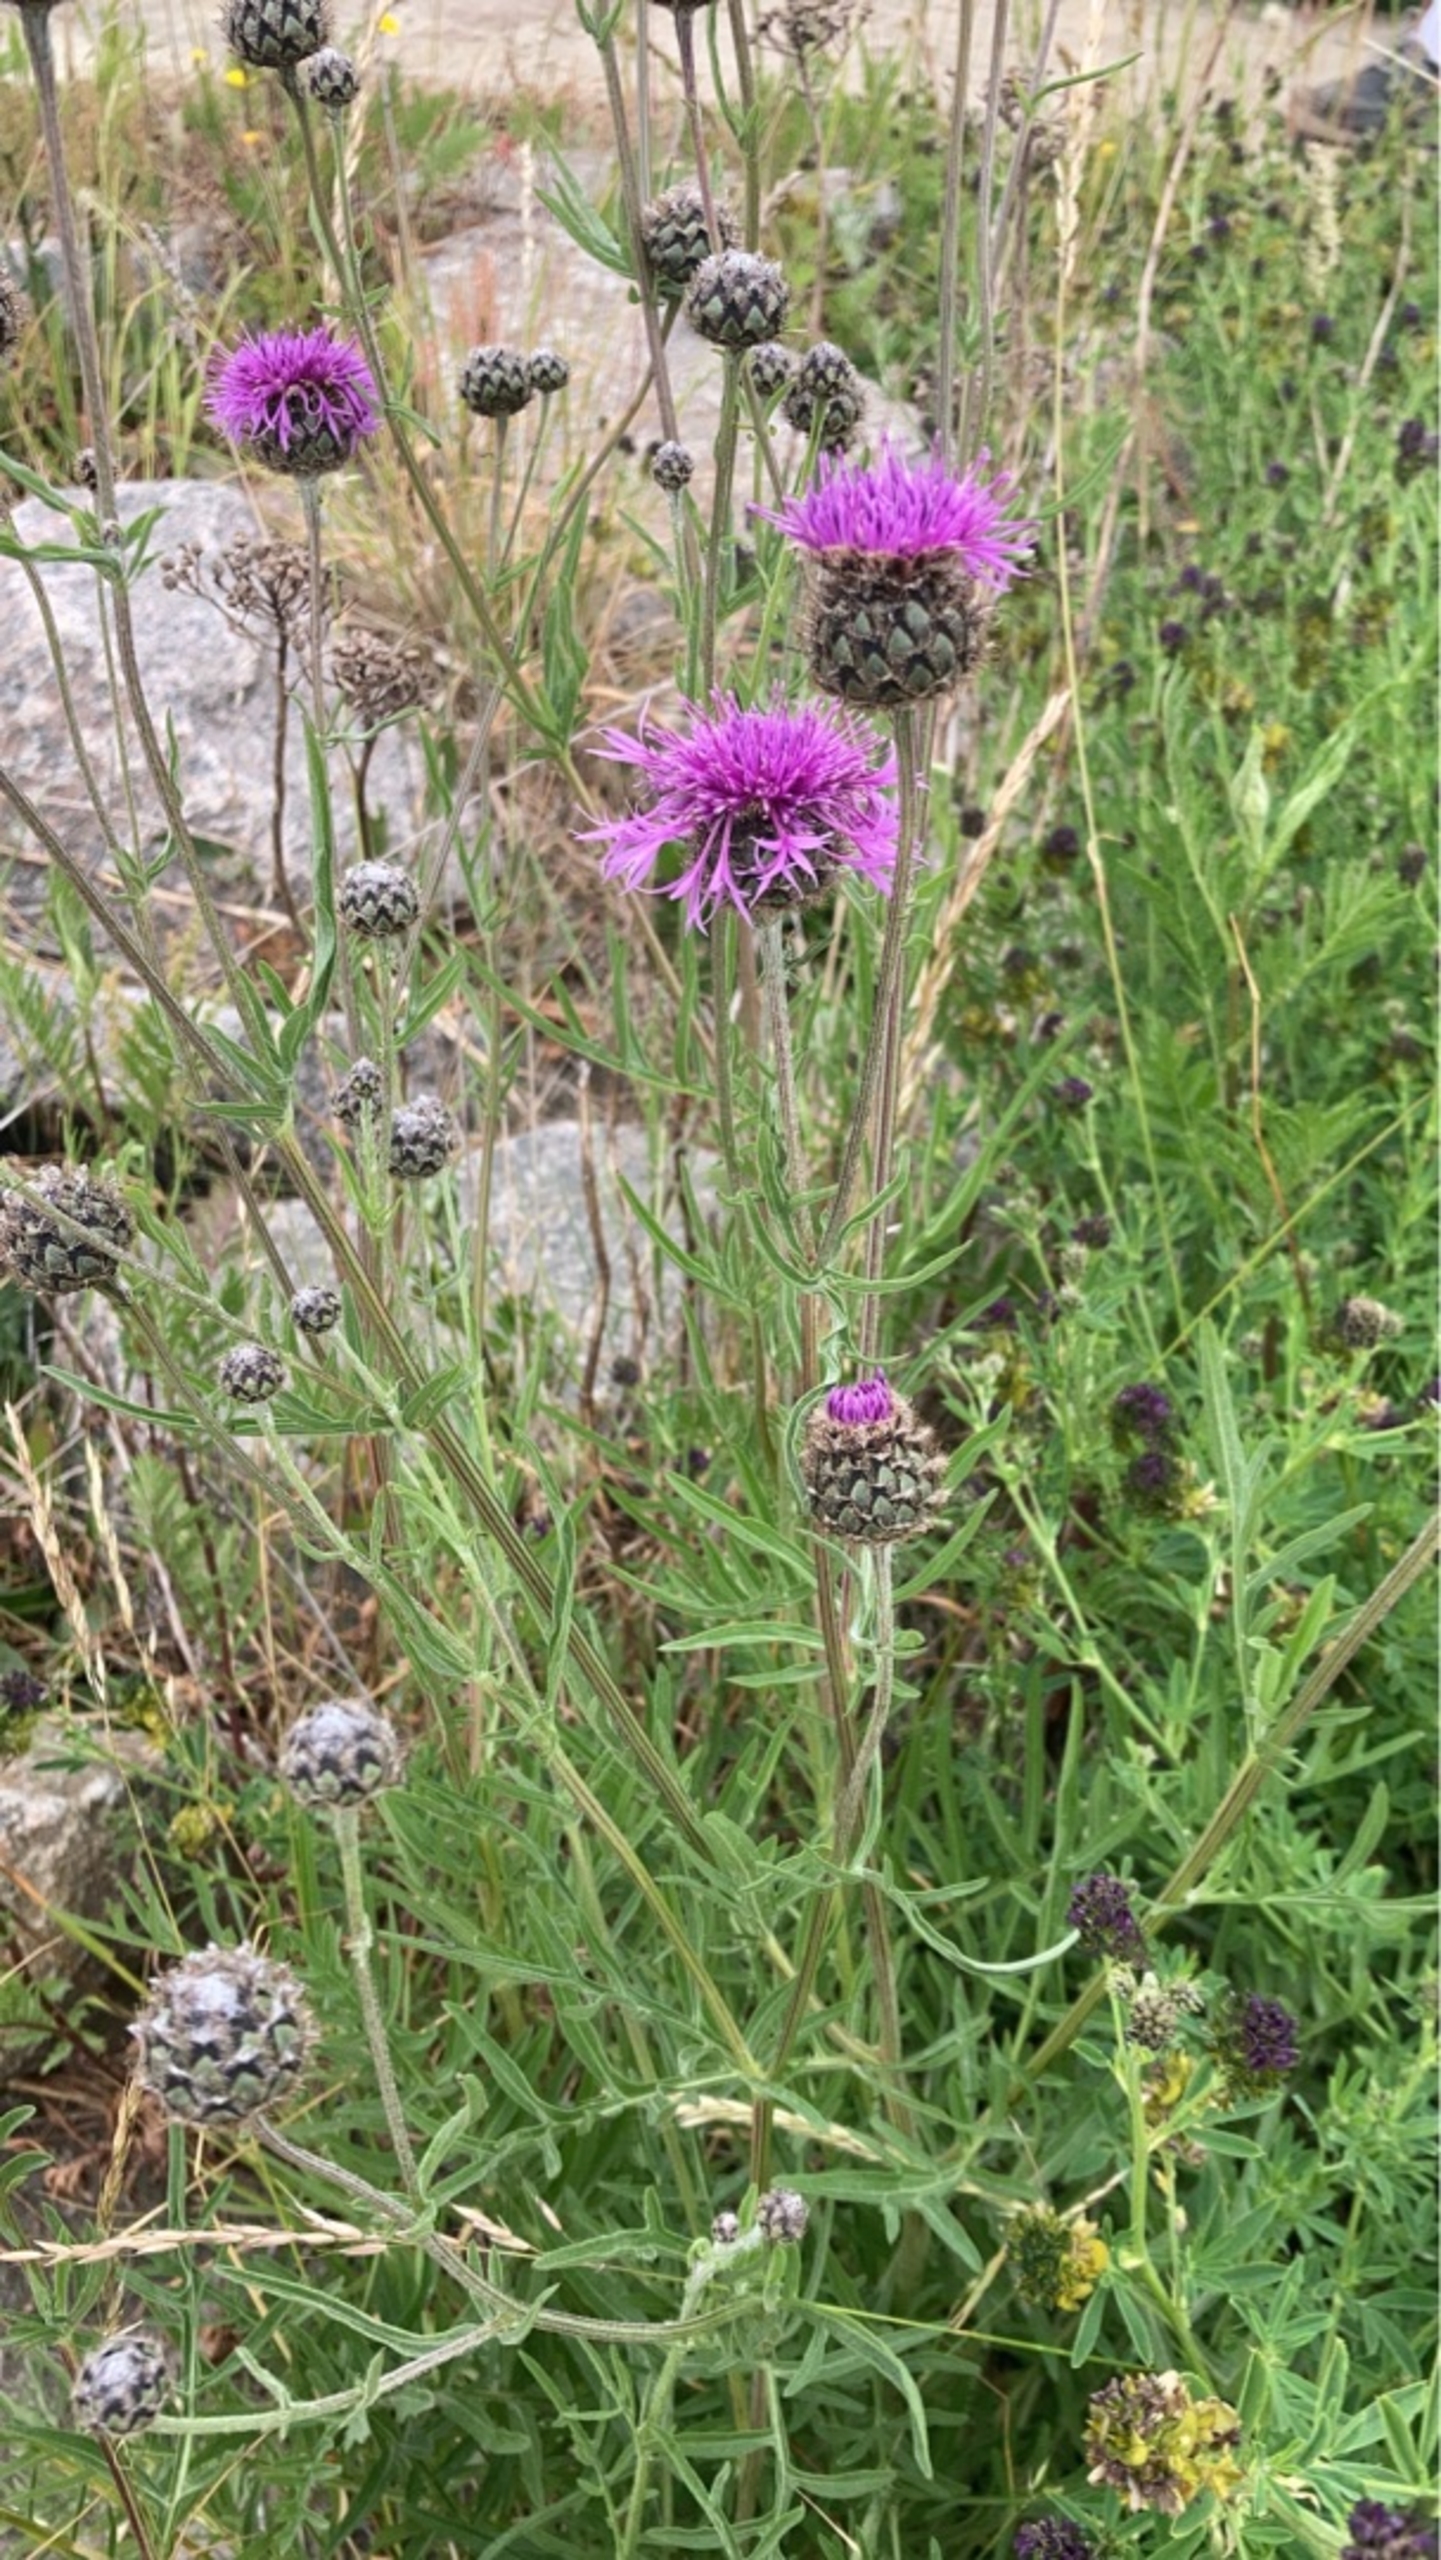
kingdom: Plantae
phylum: Tracheophyta
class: Magnoliopsida
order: Asterales
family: Asteraceae
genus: Centaurea
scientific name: Centaurea scabiosa
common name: Stor knopurt
